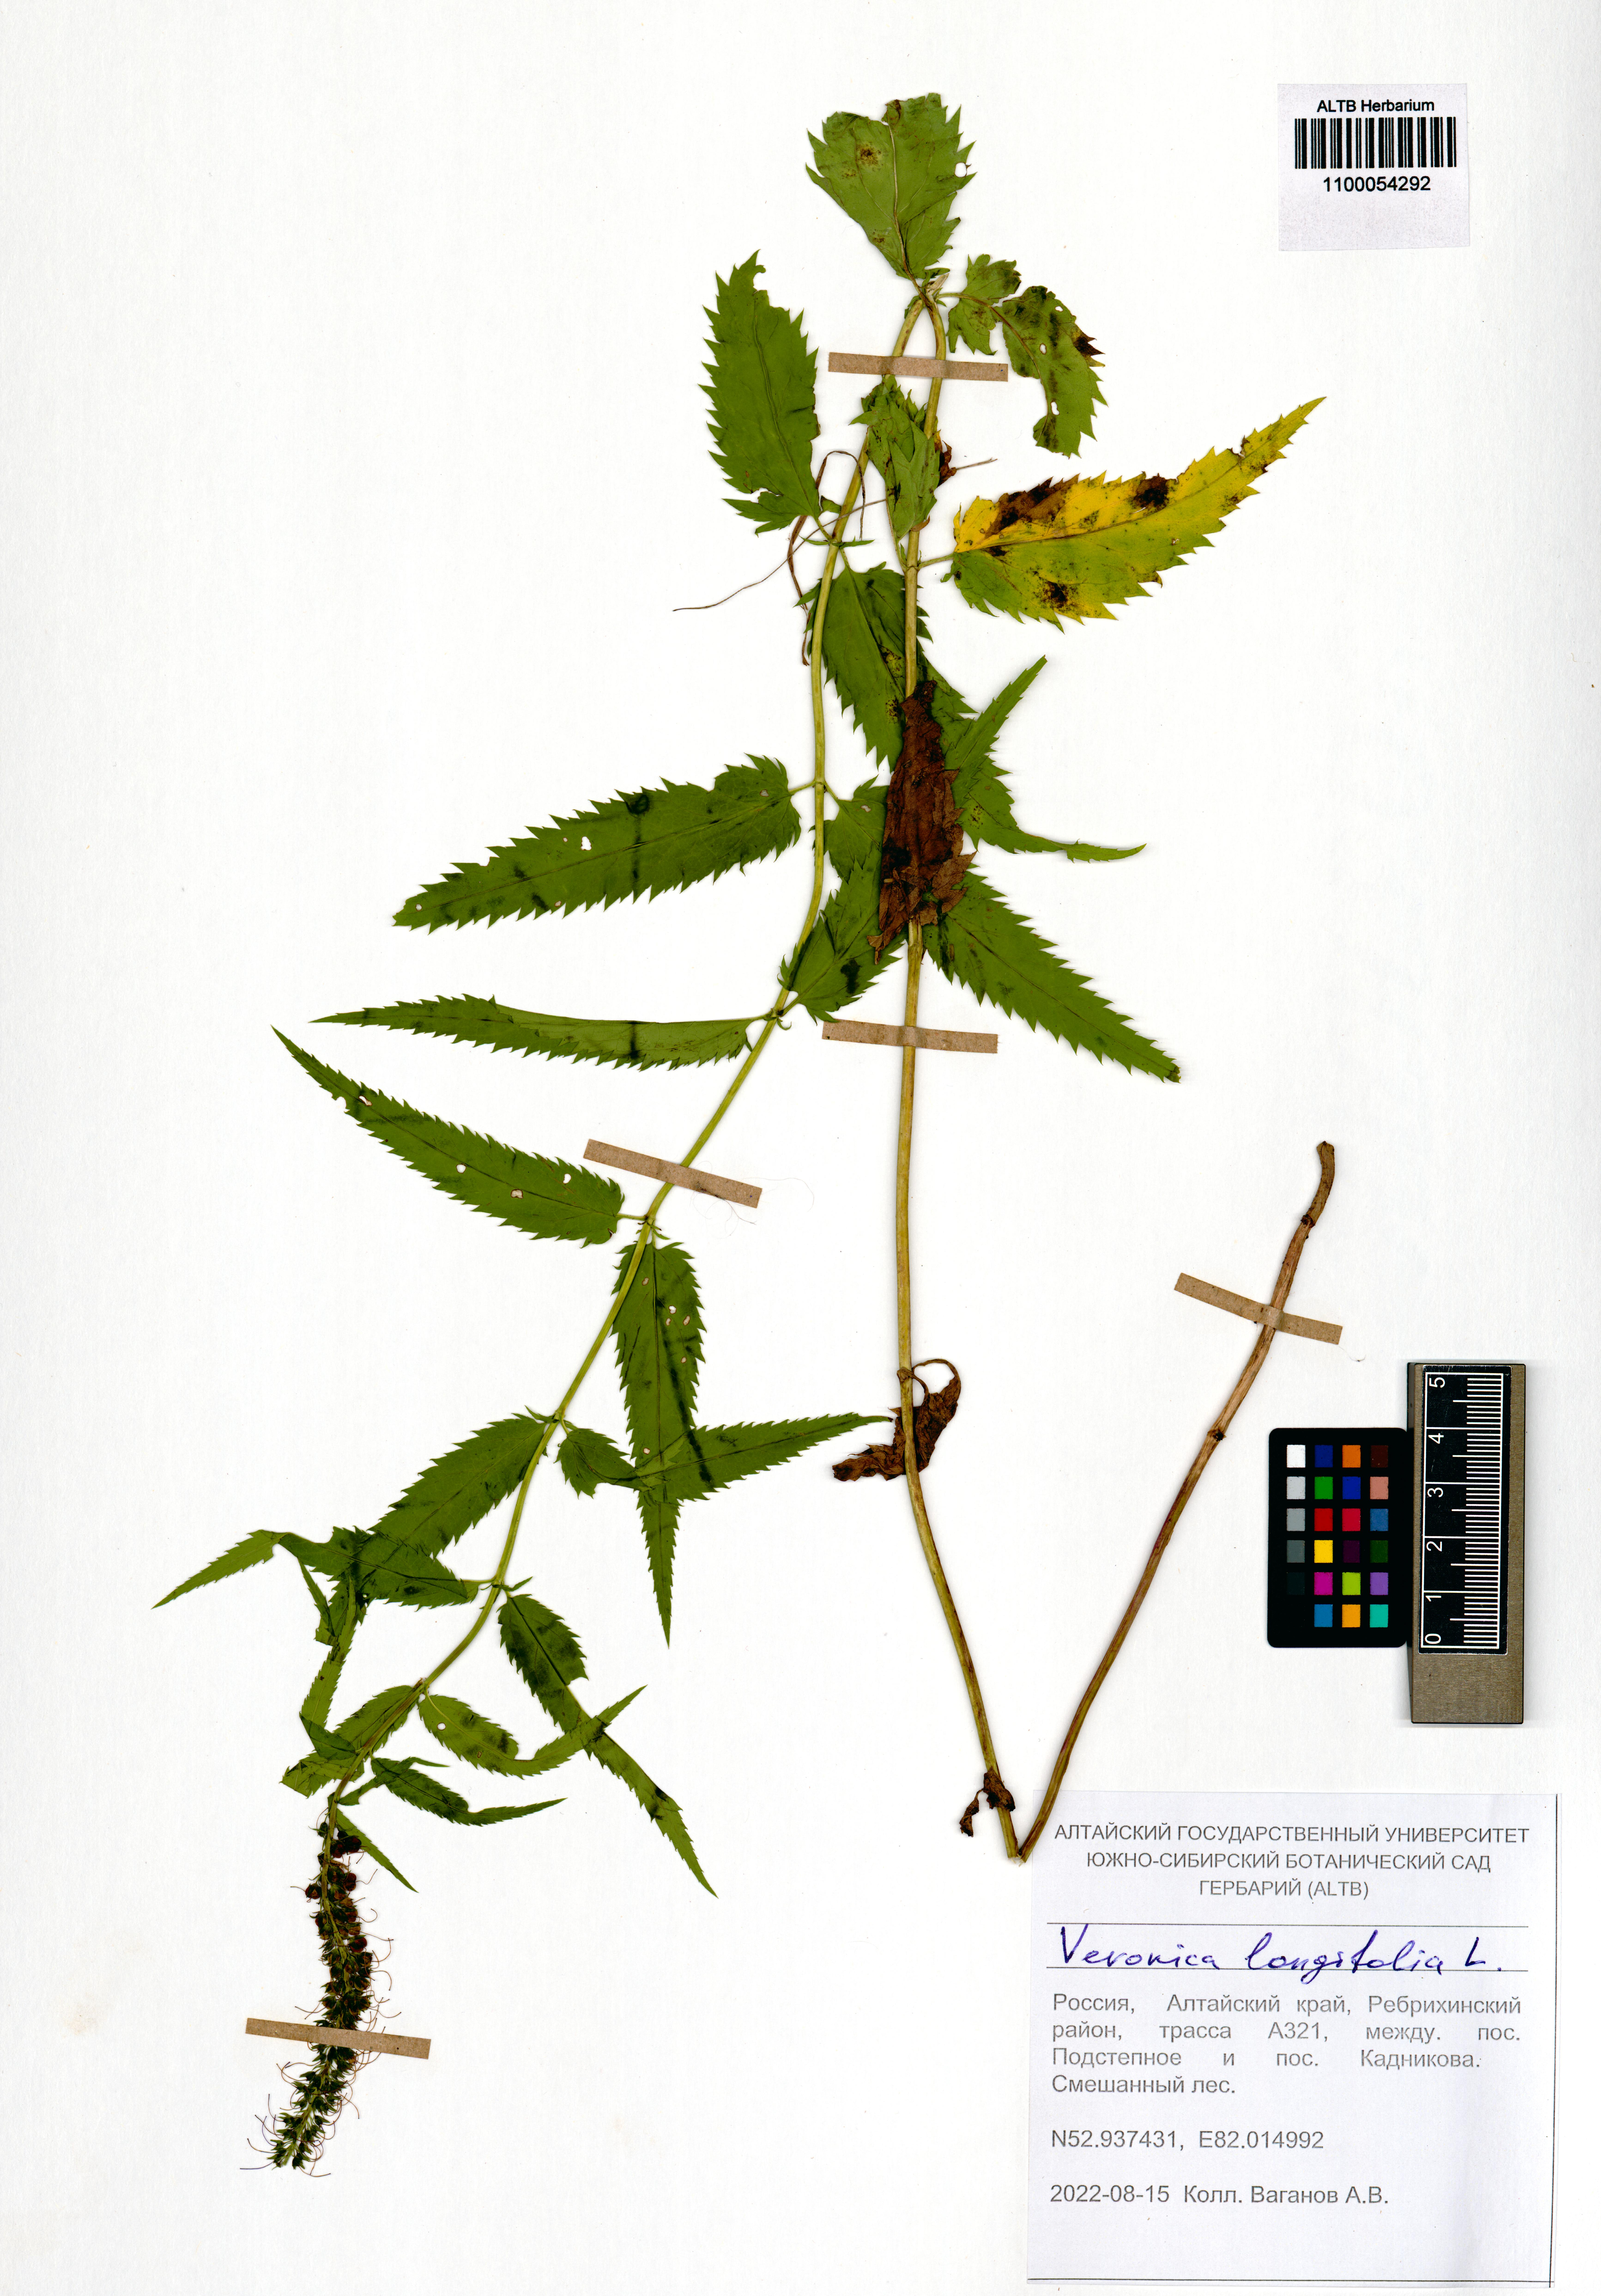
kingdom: Plantae
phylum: Tracheophyta
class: Magnoliopsida
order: Lamiales
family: Plantaginaceae
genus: Veronica
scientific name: Veronica longifolia
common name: Garden speedwell
